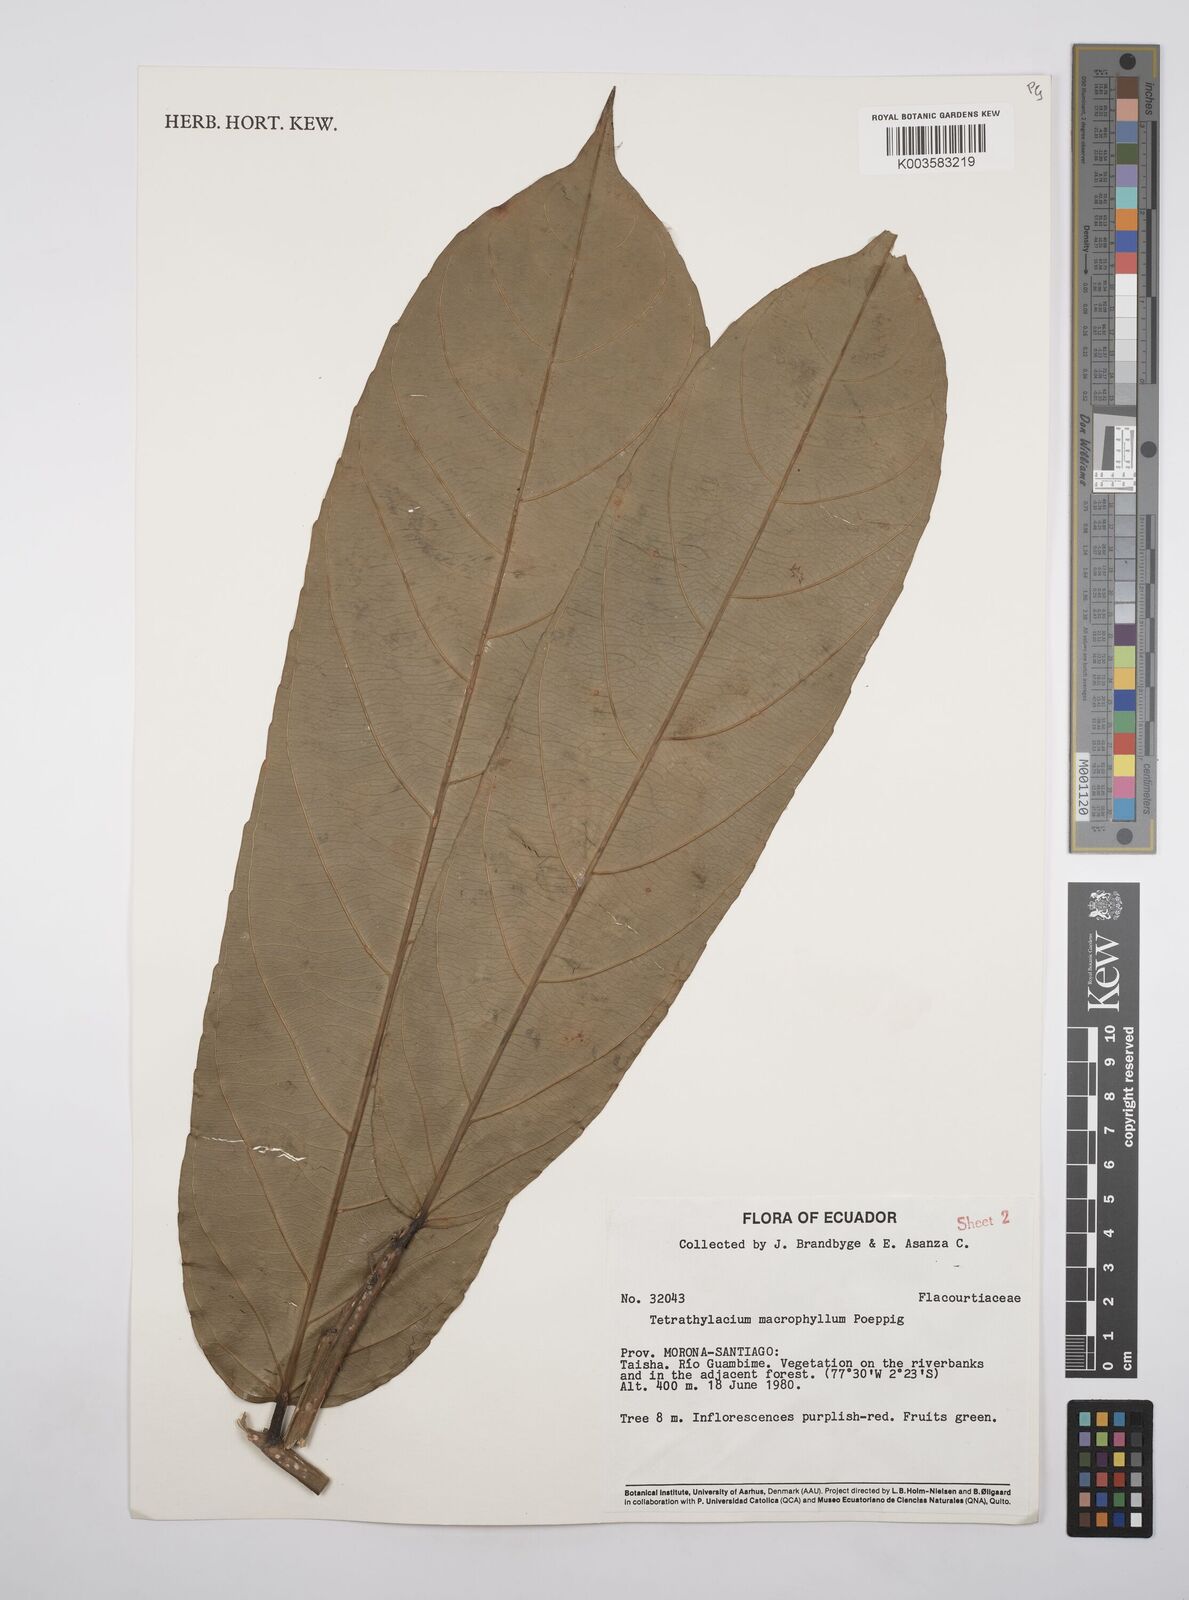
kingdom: Plantae
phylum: Tracheophyta
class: Magnoliopsida
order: Malpighiales
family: Salicaceae
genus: Tetrathylacium
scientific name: Tetrathylacium macrophyllum
